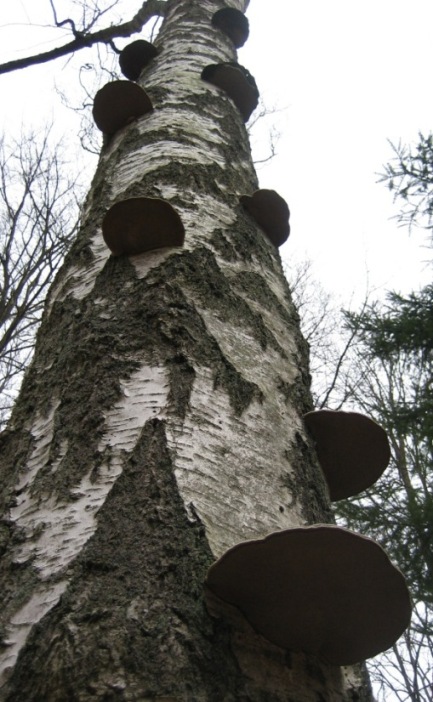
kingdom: Fungi
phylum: Basidiomycota
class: Agaricomycetes
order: Polyporales
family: Polyporaceae
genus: Fomes
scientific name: Fomes fomentarius
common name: tøndersvamp
